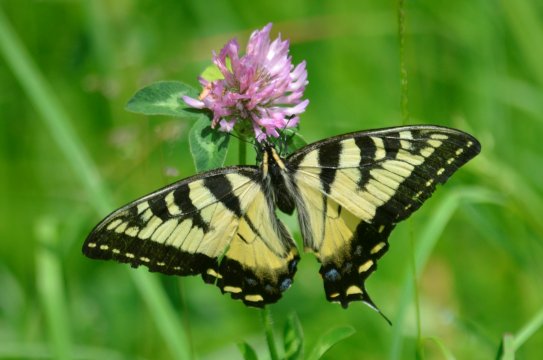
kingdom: Animalia
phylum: Arthropoda
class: Insecta
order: Lepidoptera
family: Papilionidae
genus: Pterourus
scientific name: Pterourus canadensis
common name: Canadian Tiger Swallowtail
